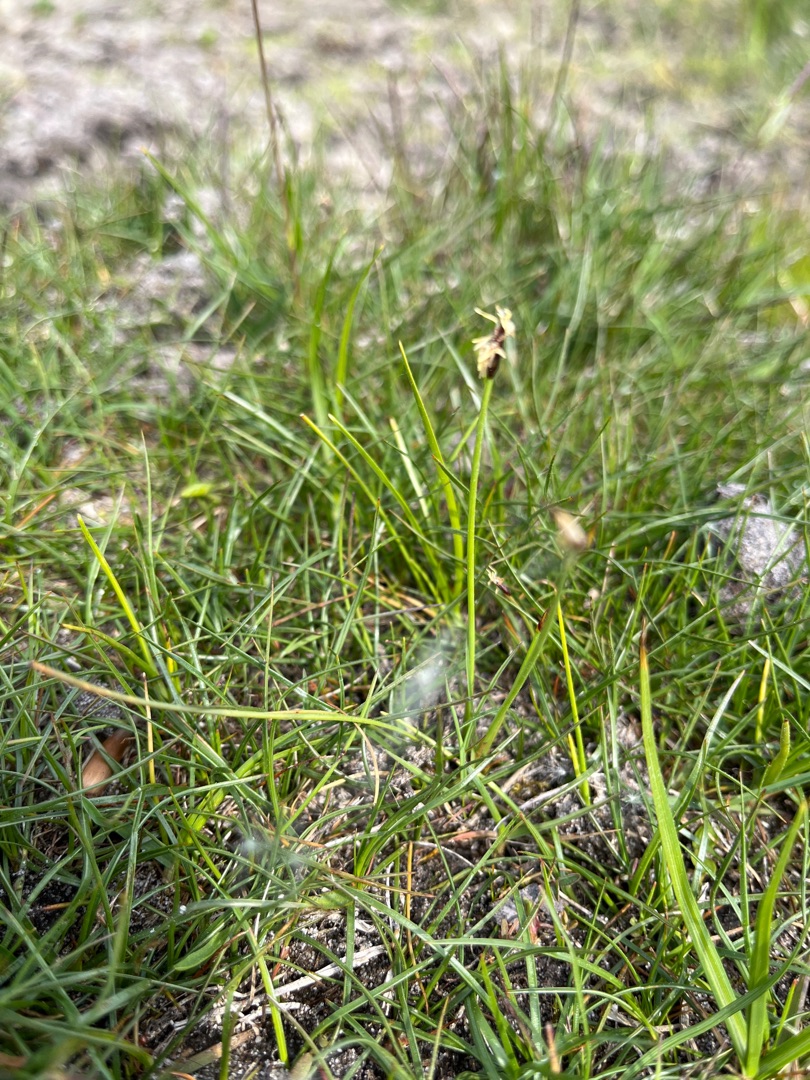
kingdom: Plantae
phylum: Tracheophyta
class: Liliopsida
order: Poales
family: Cyperaceae
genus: Eleocharis
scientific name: Eleocharis uniglumis
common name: Enskællet sumpstrå
